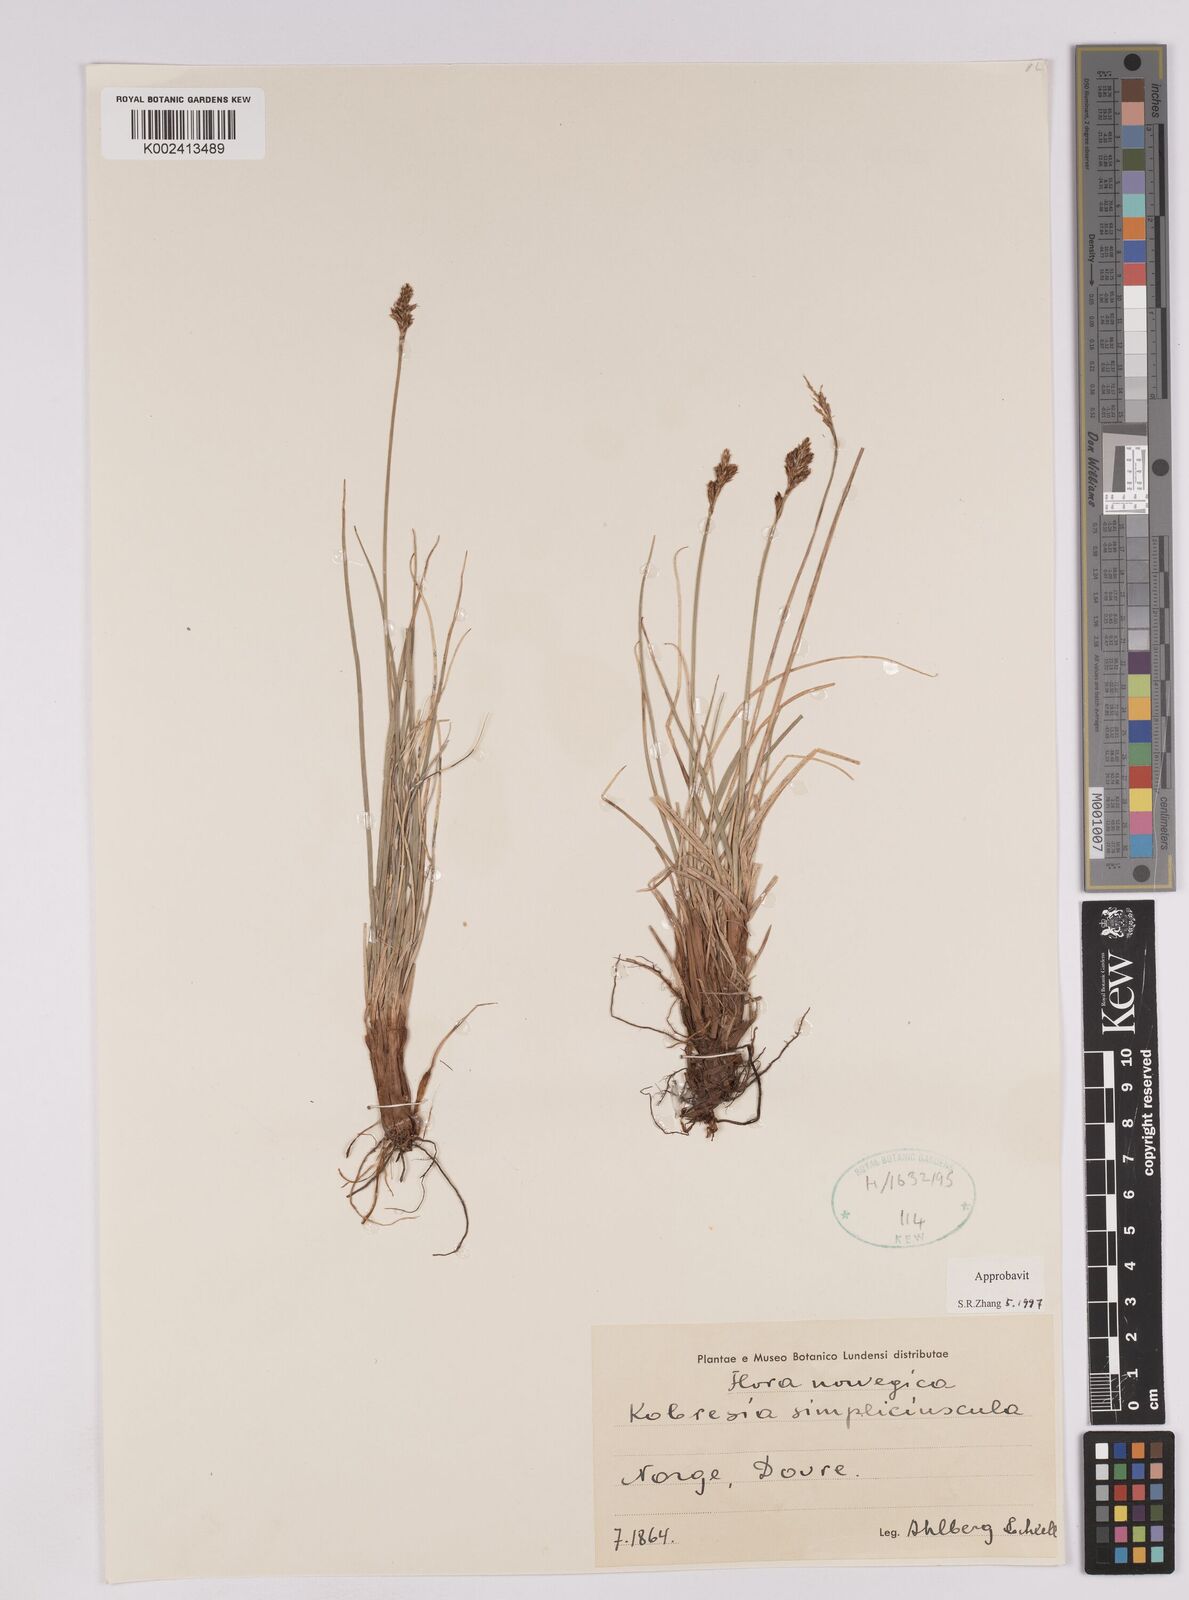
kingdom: Plantae
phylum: Tracheophyta
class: Liliopsida
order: Poales
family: Cyperaceae
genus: Carex
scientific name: Carex simpliciuscula
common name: Simple bog sedge
